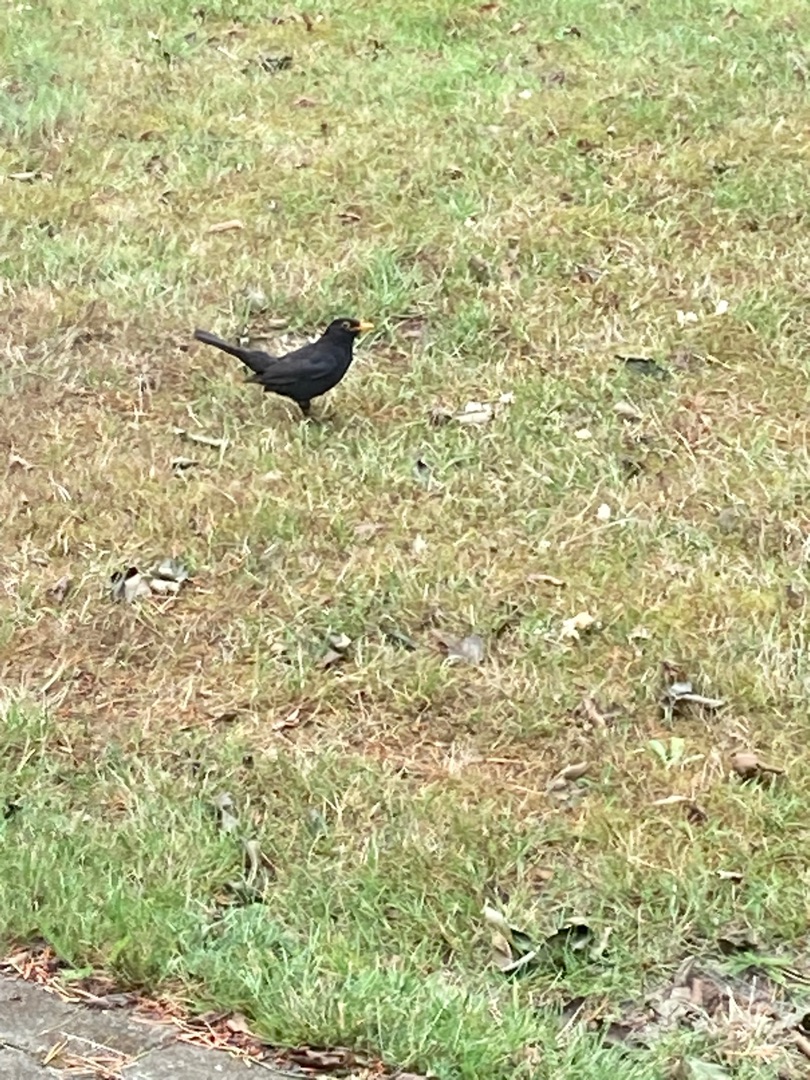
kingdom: Animalia
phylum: Chordata
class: Aves
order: Passeriformes
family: Turdidae
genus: Turdus
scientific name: Turdus merula
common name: Solsort
